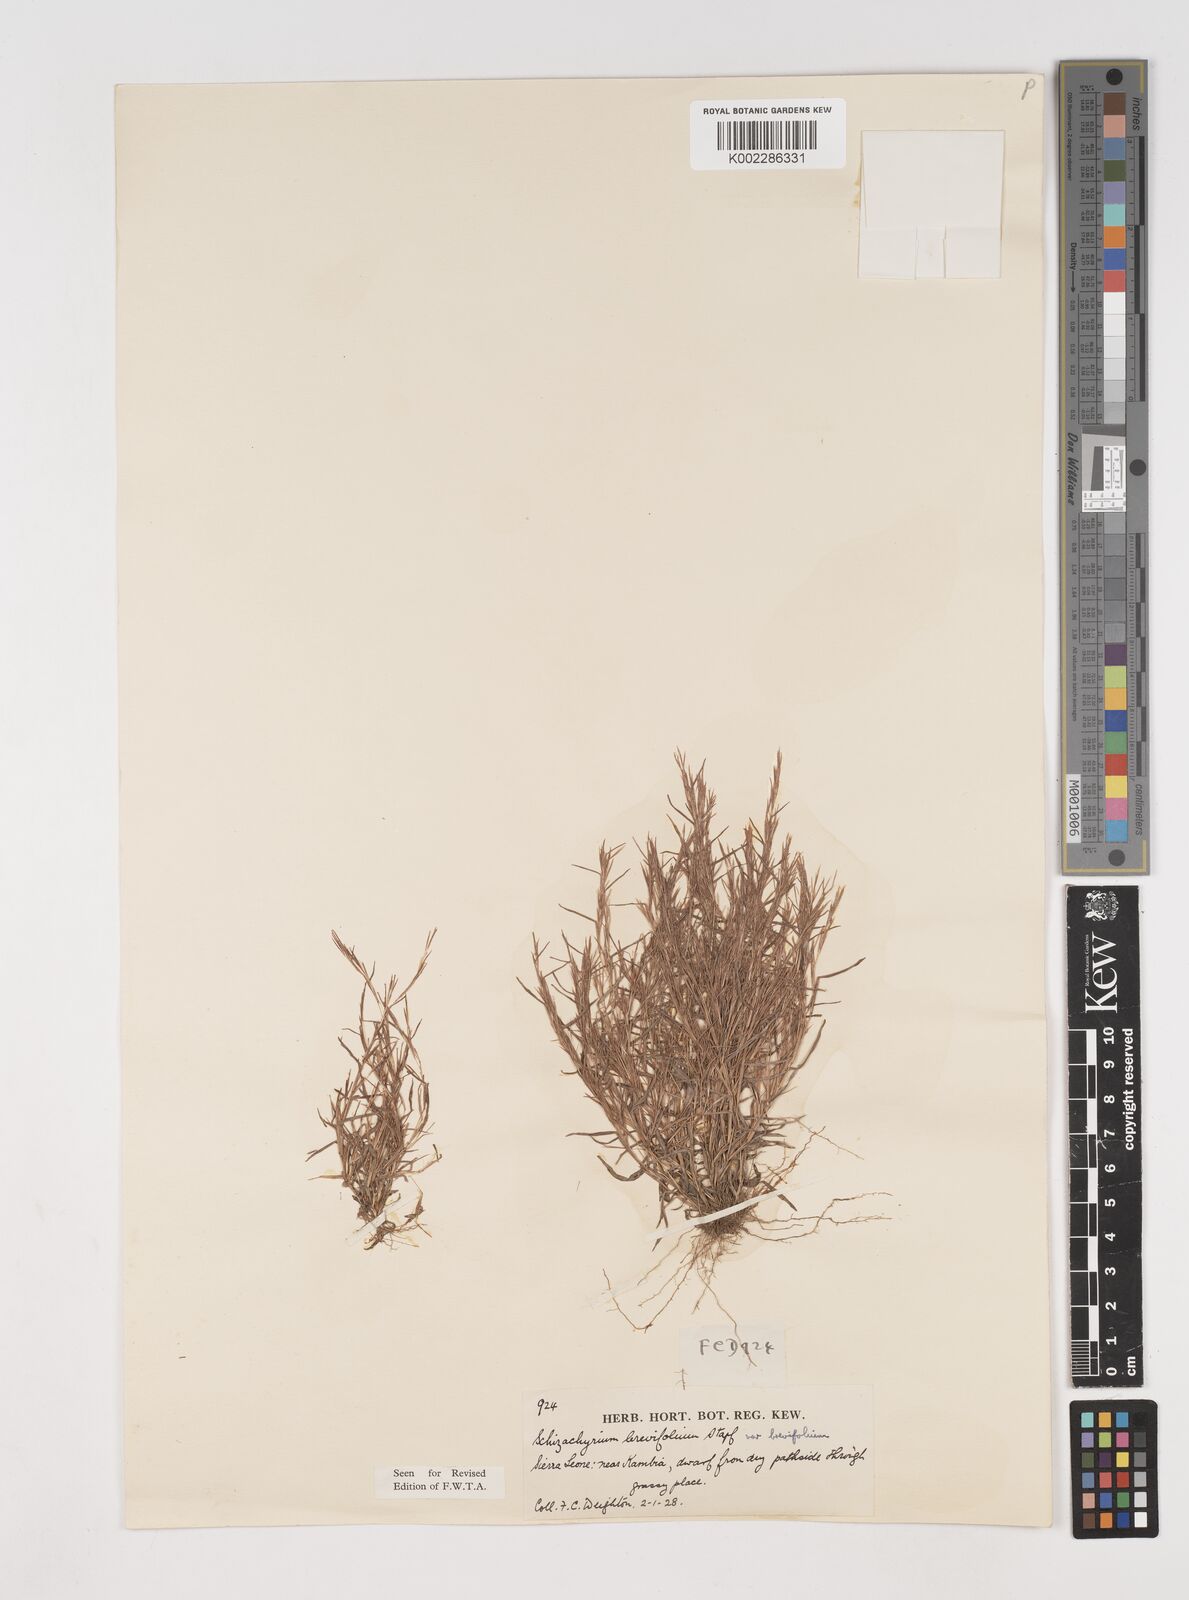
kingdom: Plantae
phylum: Tracheophyta
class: Liliopsida
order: Poales
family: Poaceae
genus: Schizachyrium
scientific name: Schizachyrium brevifolium
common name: Serillo dulce
